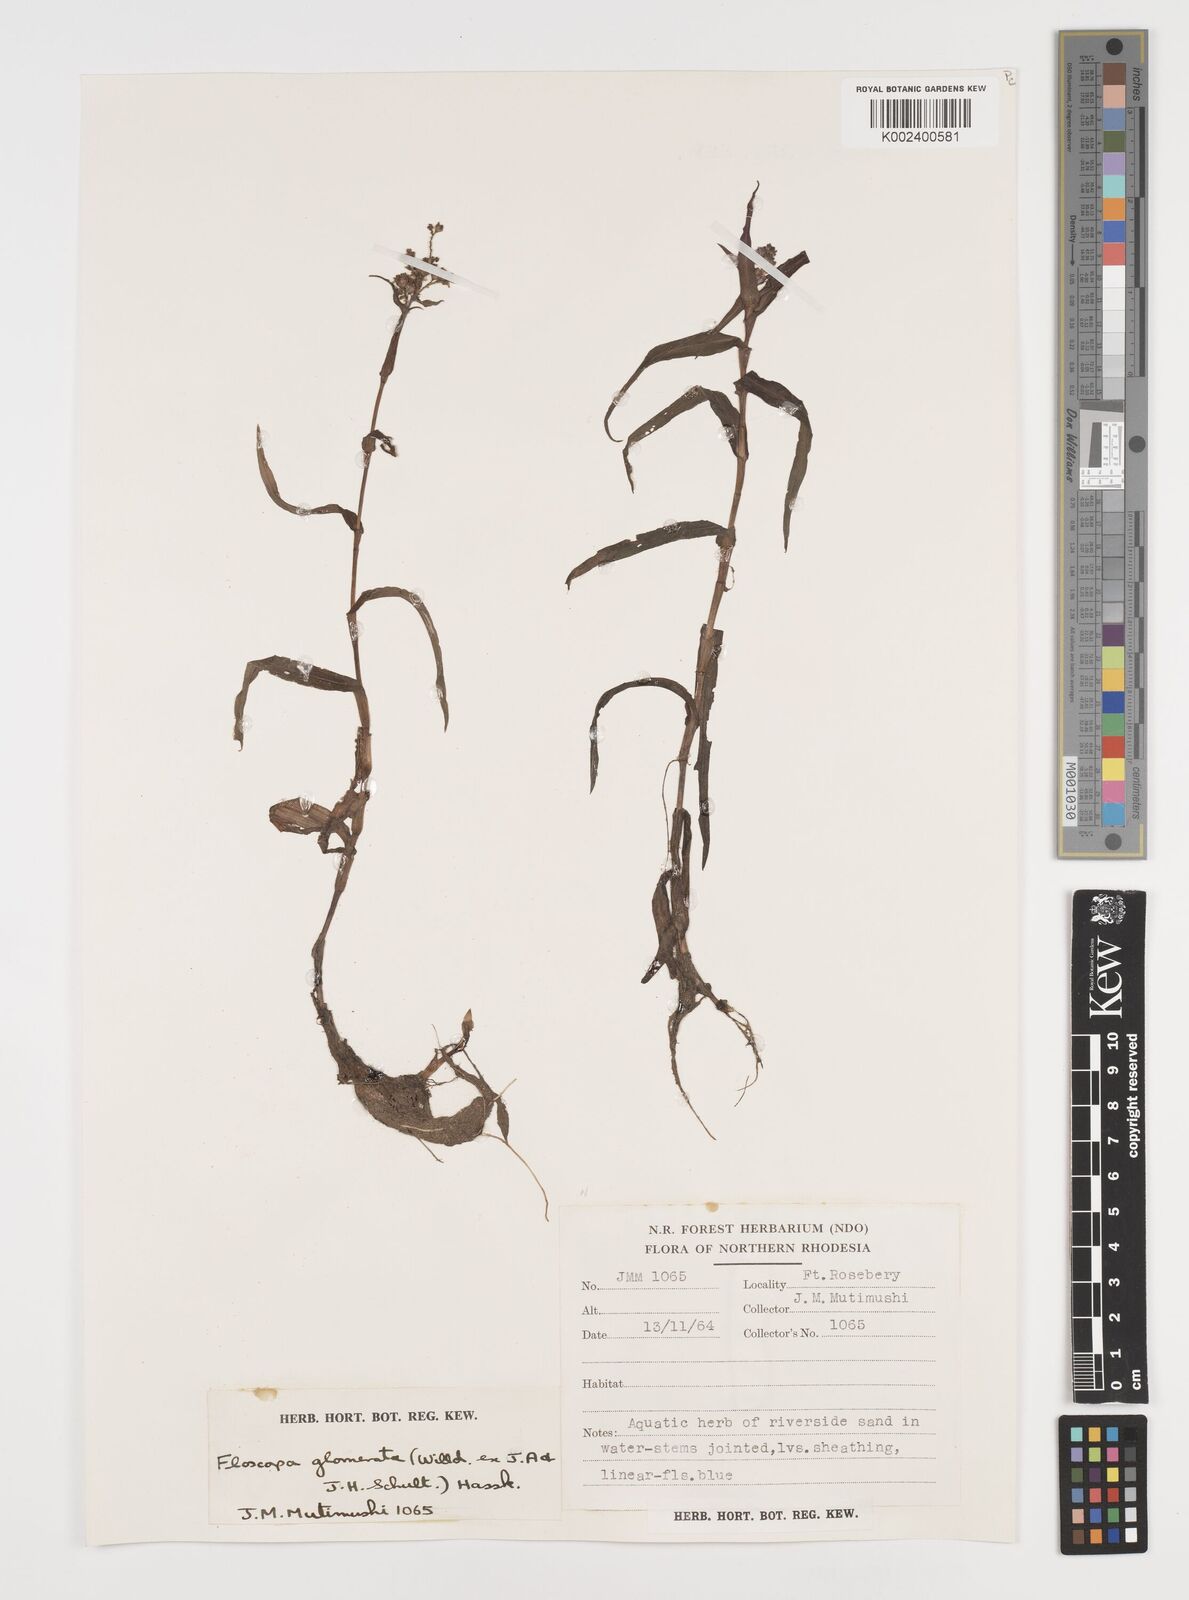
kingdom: Plantae
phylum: Tracheophyta
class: Liliopsida
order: Commelinales
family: Commelinaceae
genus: Floscopa
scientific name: Floscopa glomerata
